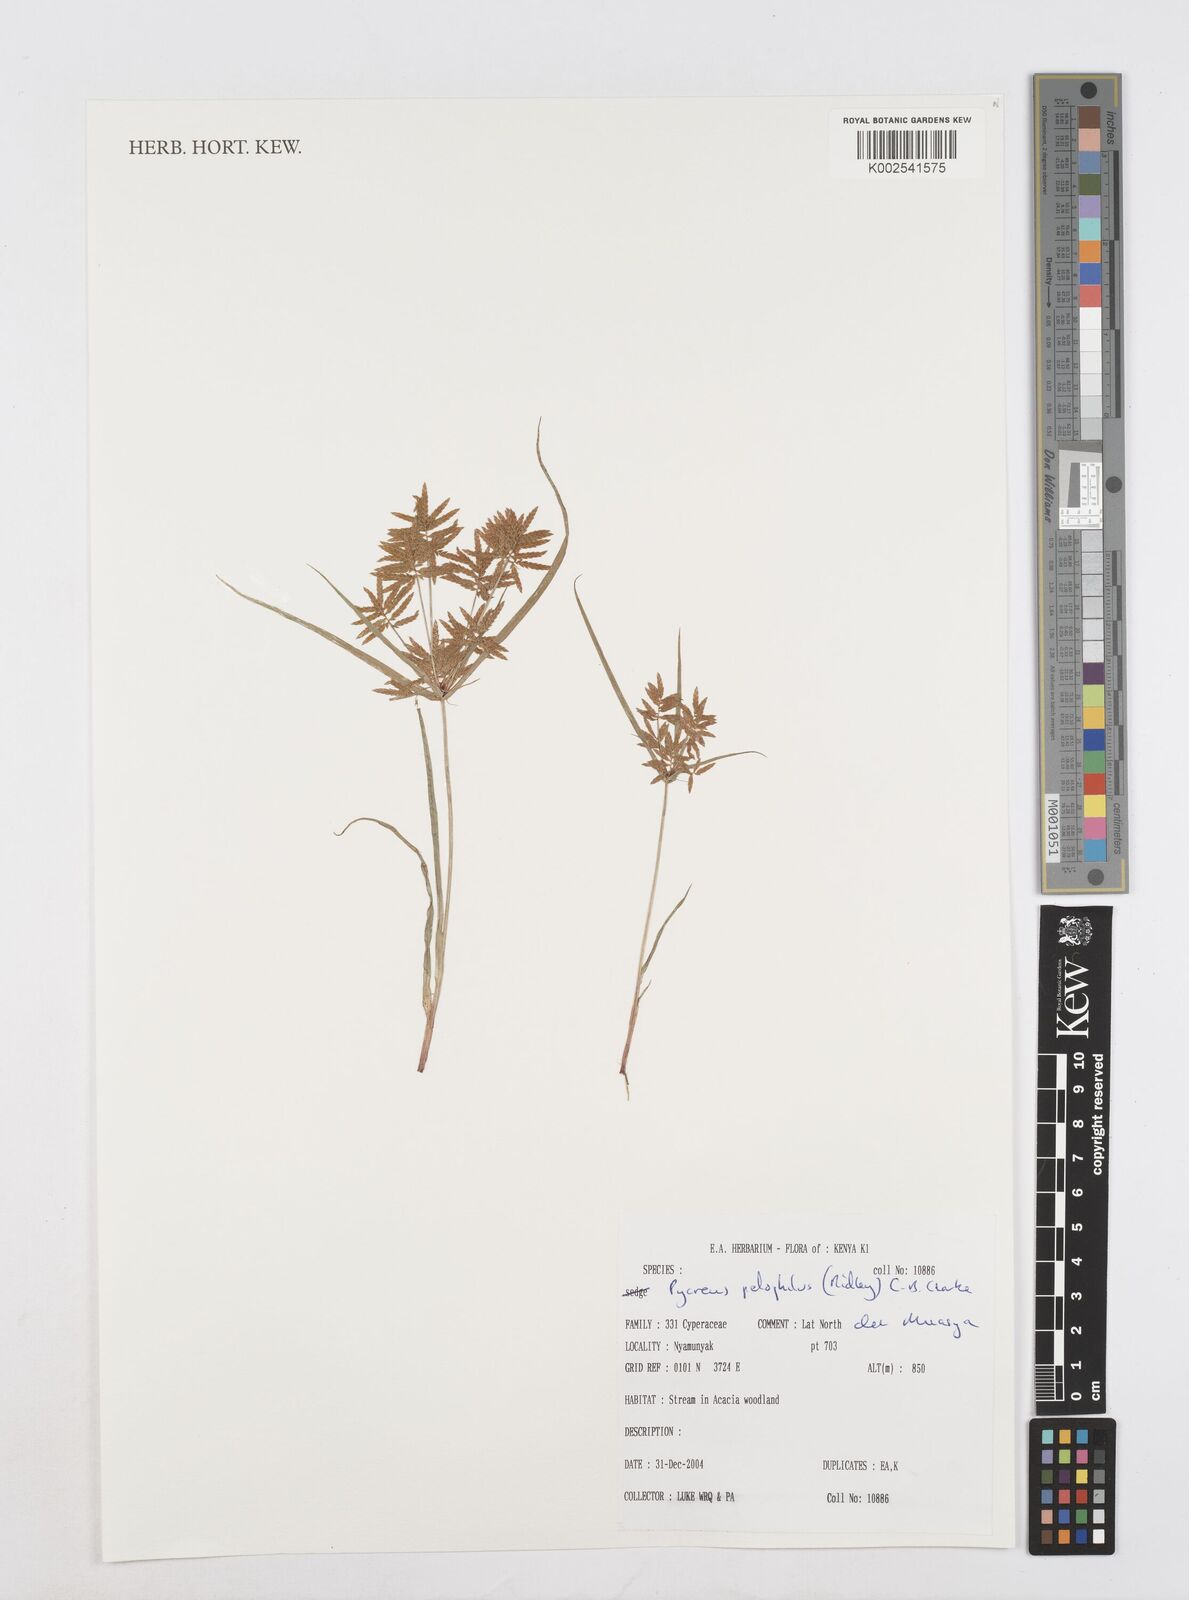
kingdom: Plantae
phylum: Tracheophyta
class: Liliopsida
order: Poales
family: Cyperaceae
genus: Cyperus
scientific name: Cyperus pelophilus
